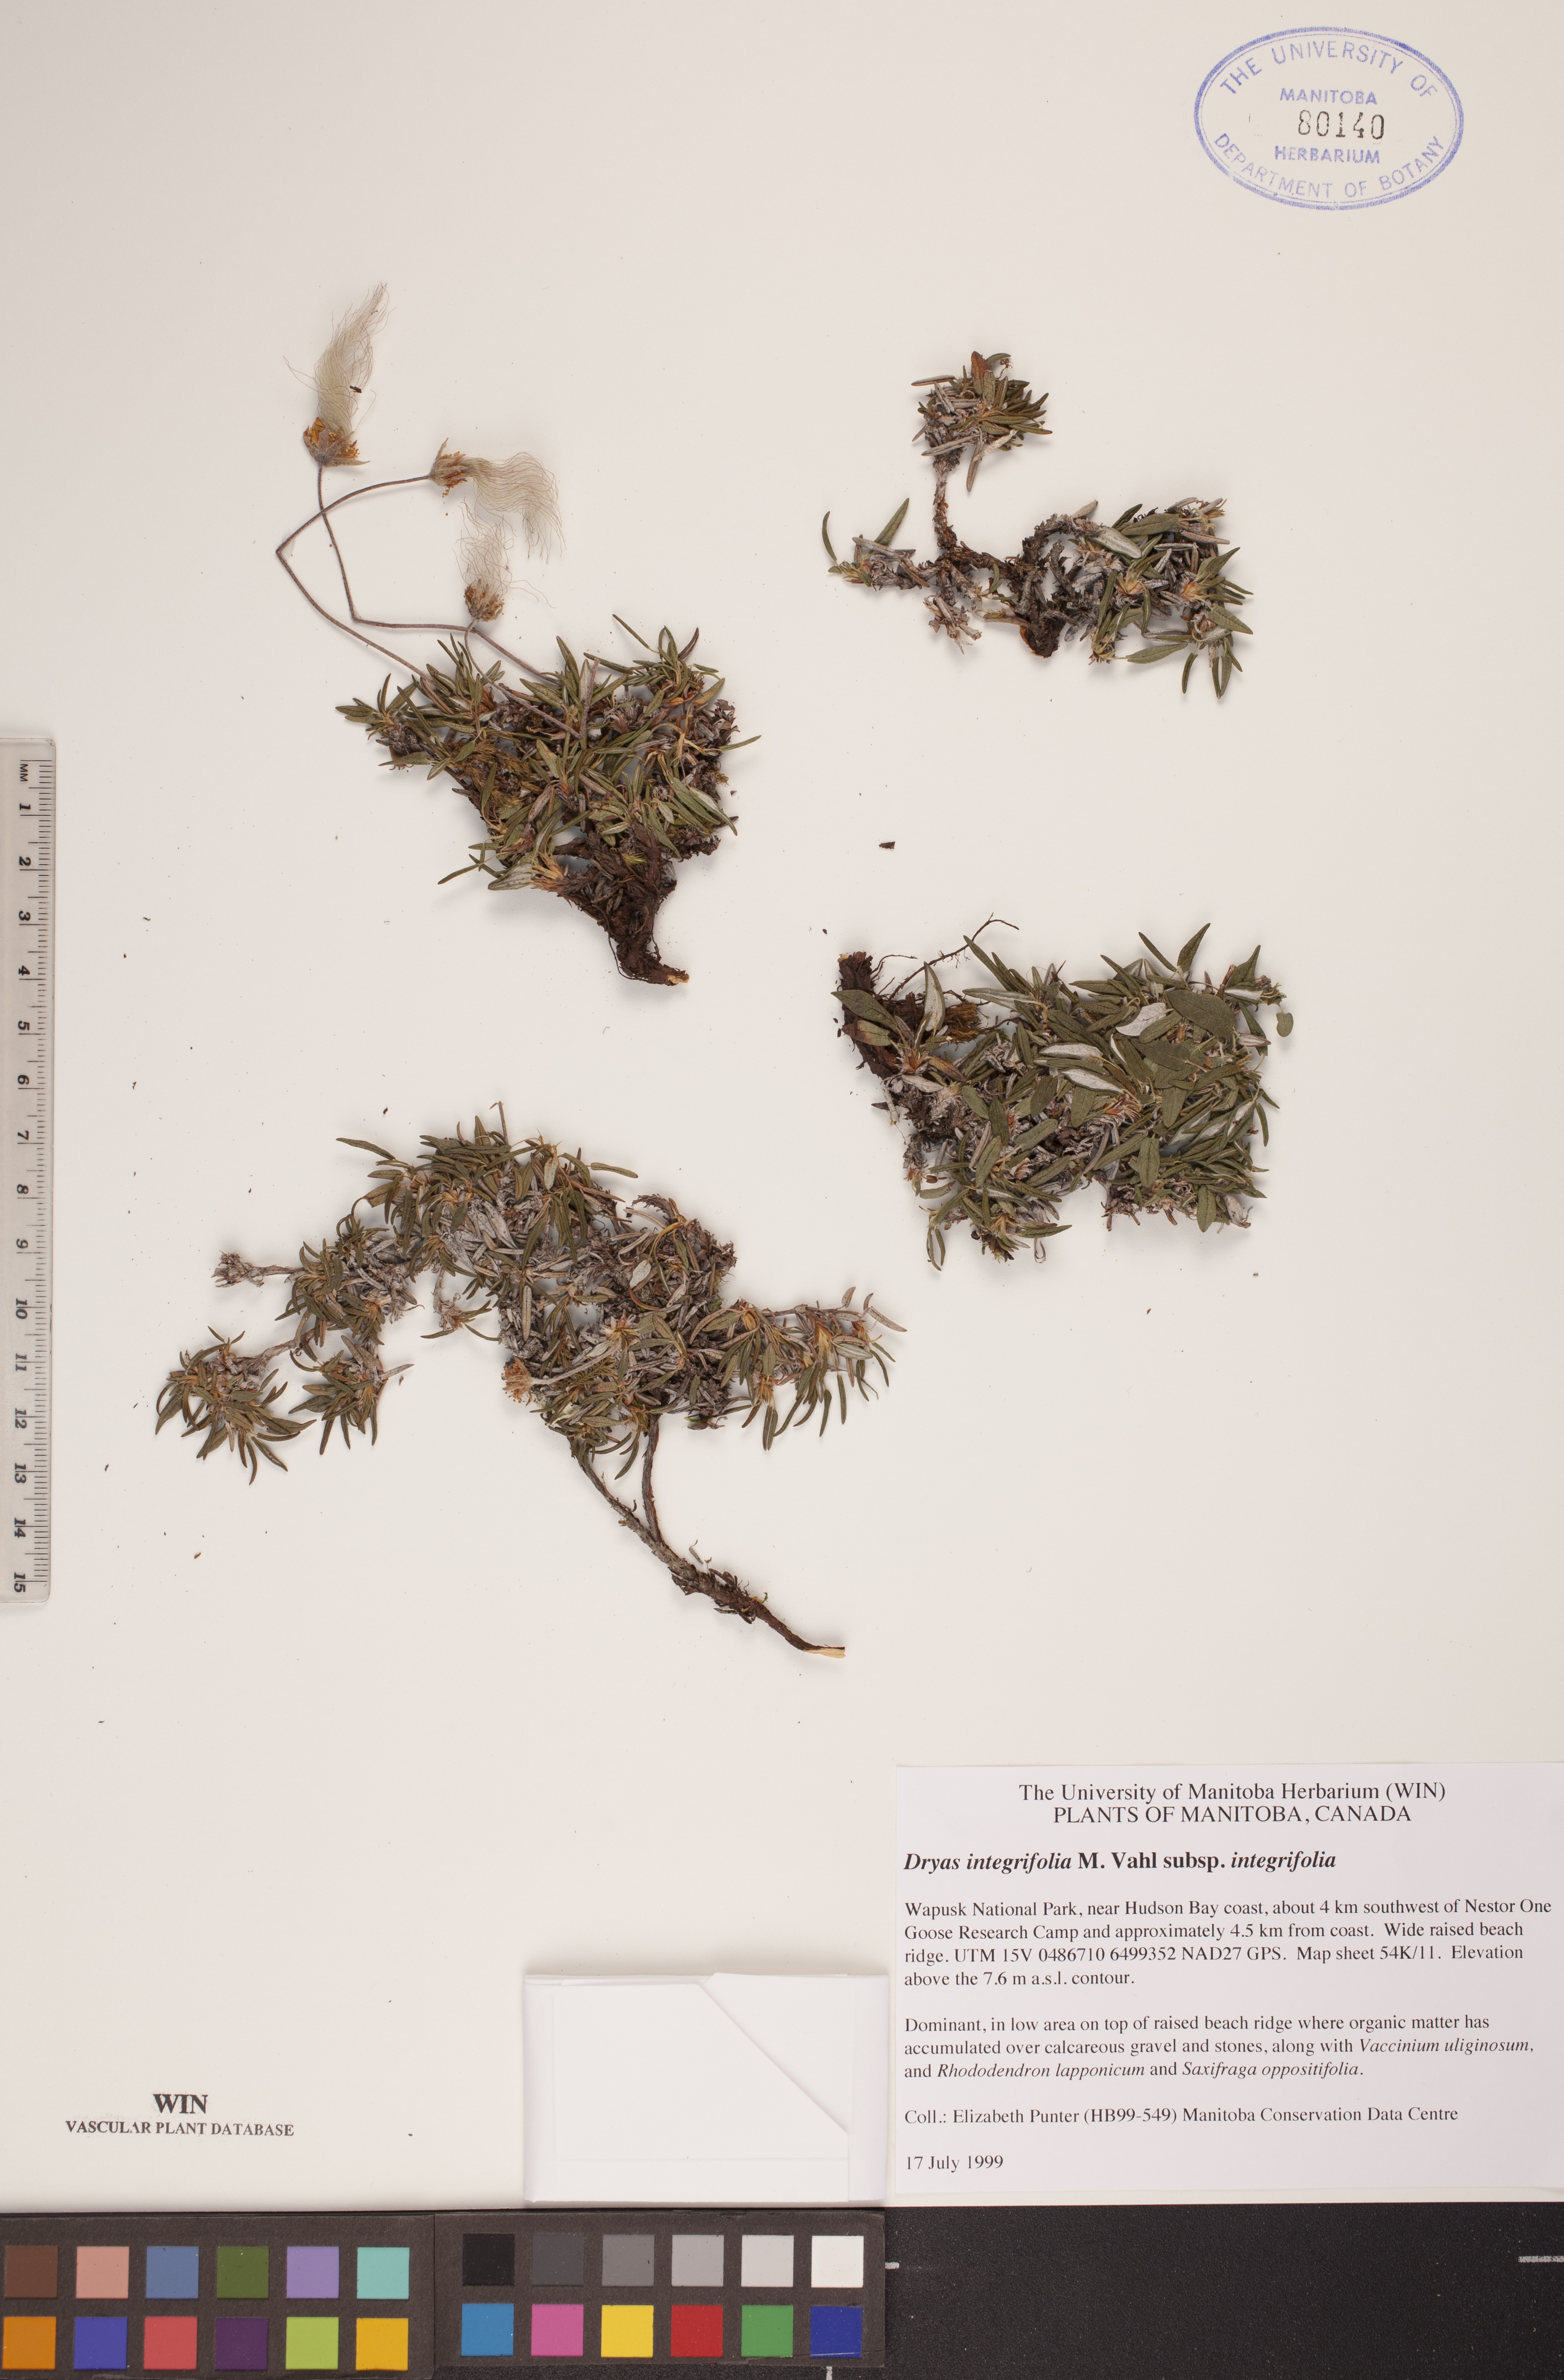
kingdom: Plantae
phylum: Tracheophyta
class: Magnoliopsida
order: Rosales
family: Rosaceae
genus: Dryas
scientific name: Dryas integrifolia
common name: Entire-leaved mountain avens
